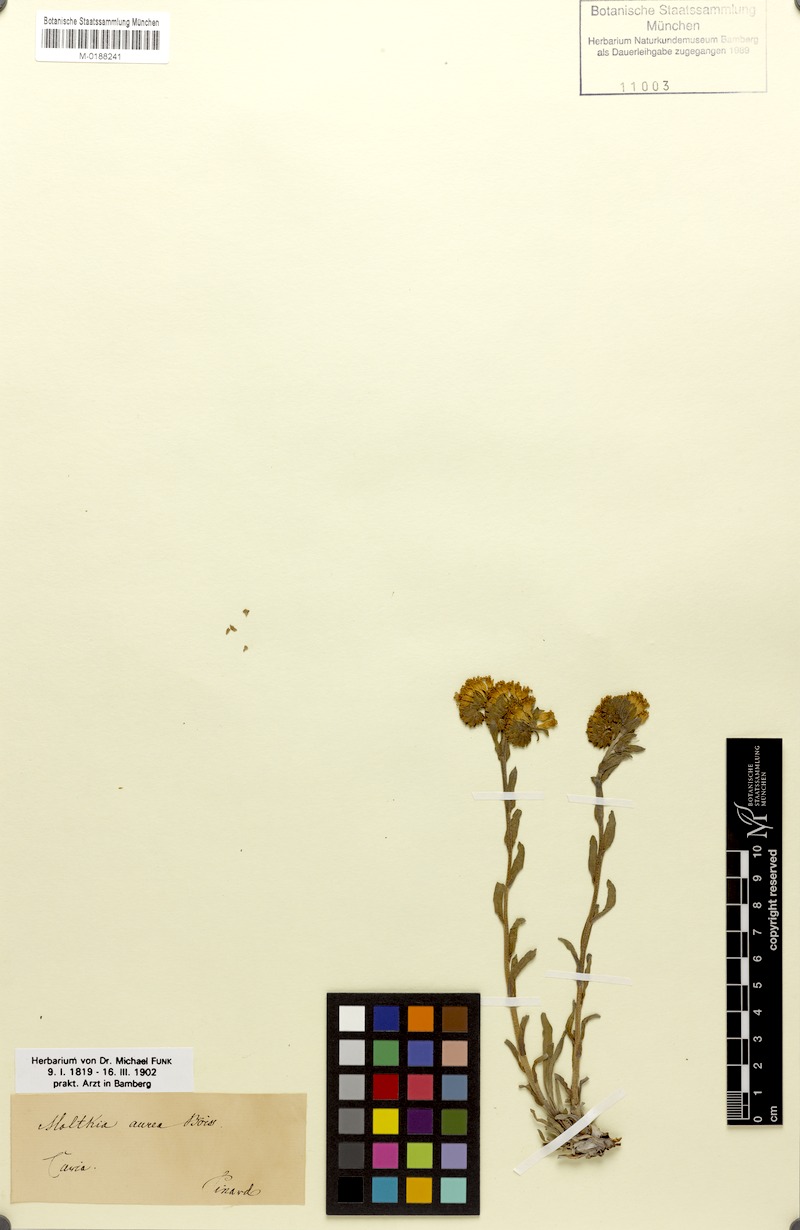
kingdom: Plantae
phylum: Tracheophyta
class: Magnoliopsida
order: Boraginales
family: Boraginaceae
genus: Moltkia
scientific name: Moltkia aurea
